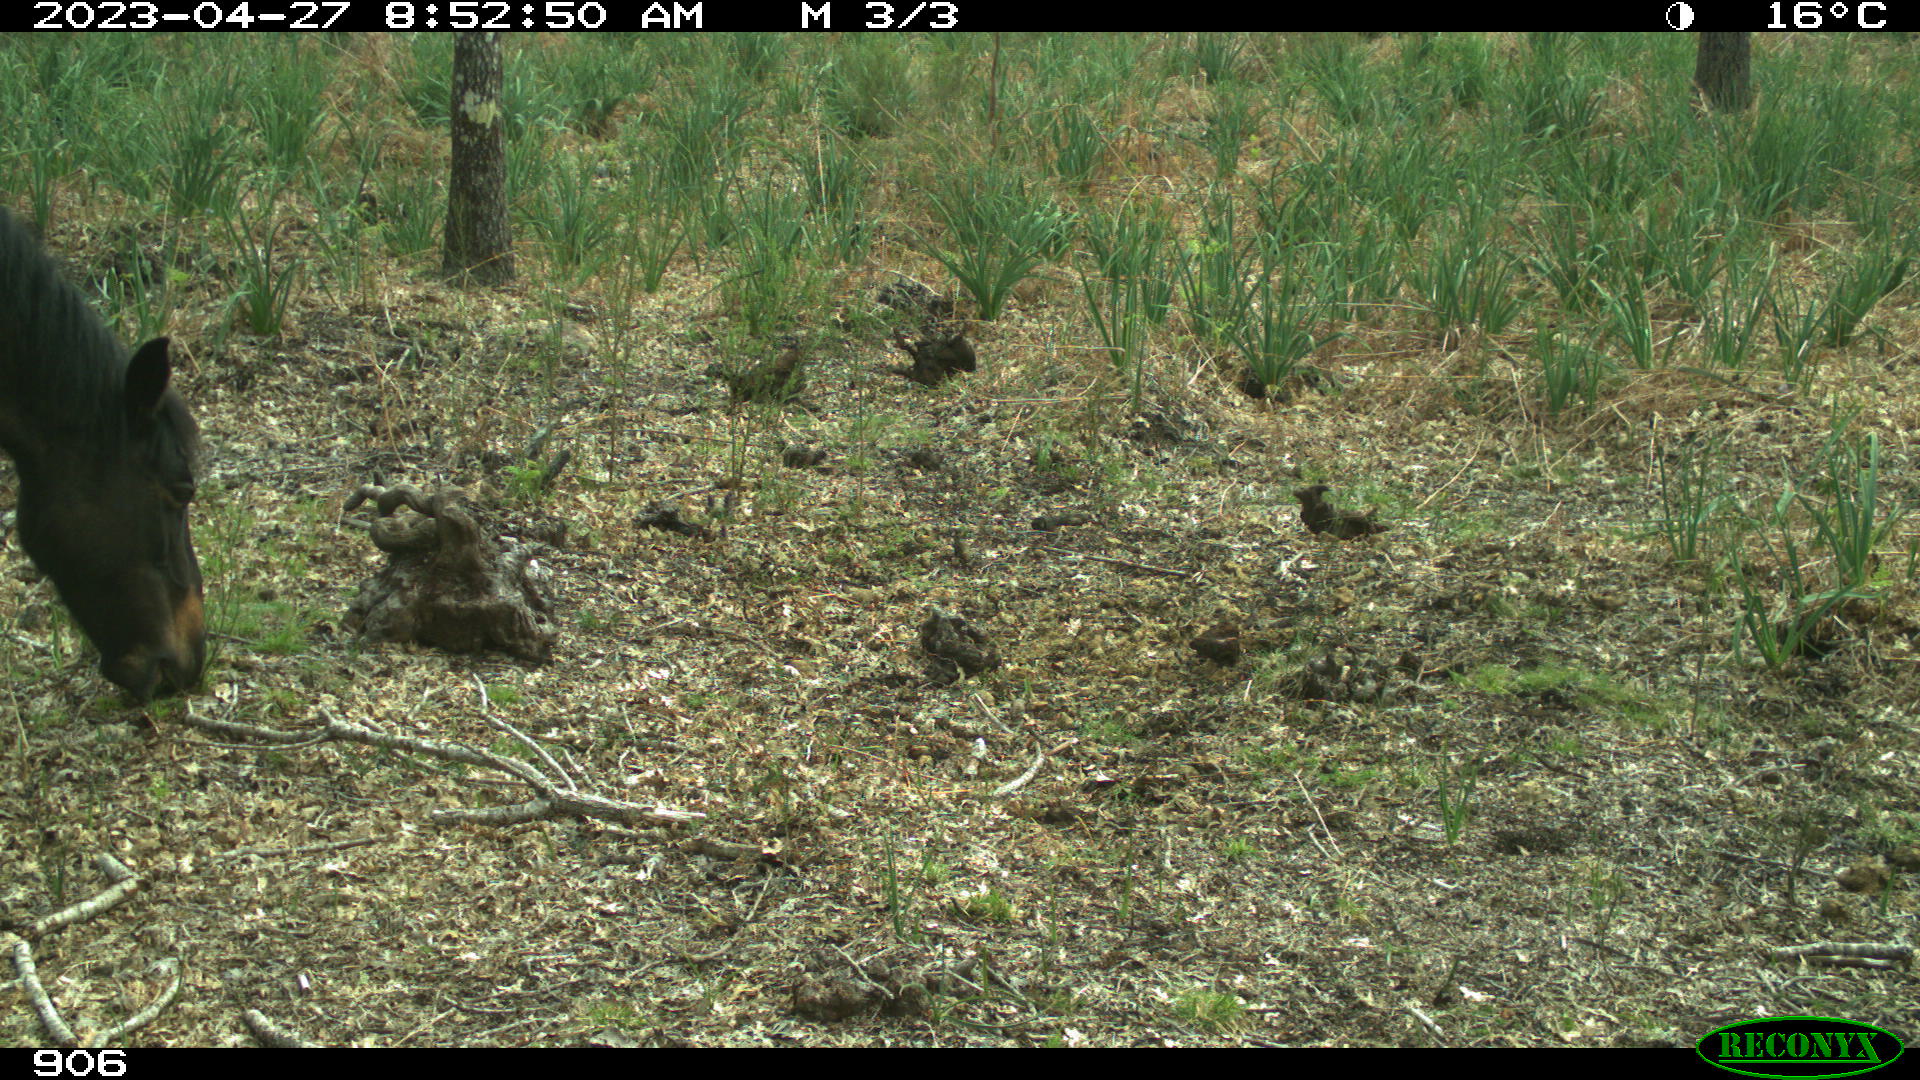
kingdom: Animalia
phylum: Chordata
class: Mammalia
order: Perissodactyla
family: Equidae
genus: Equus
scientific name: Equus caballus
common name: Horse
